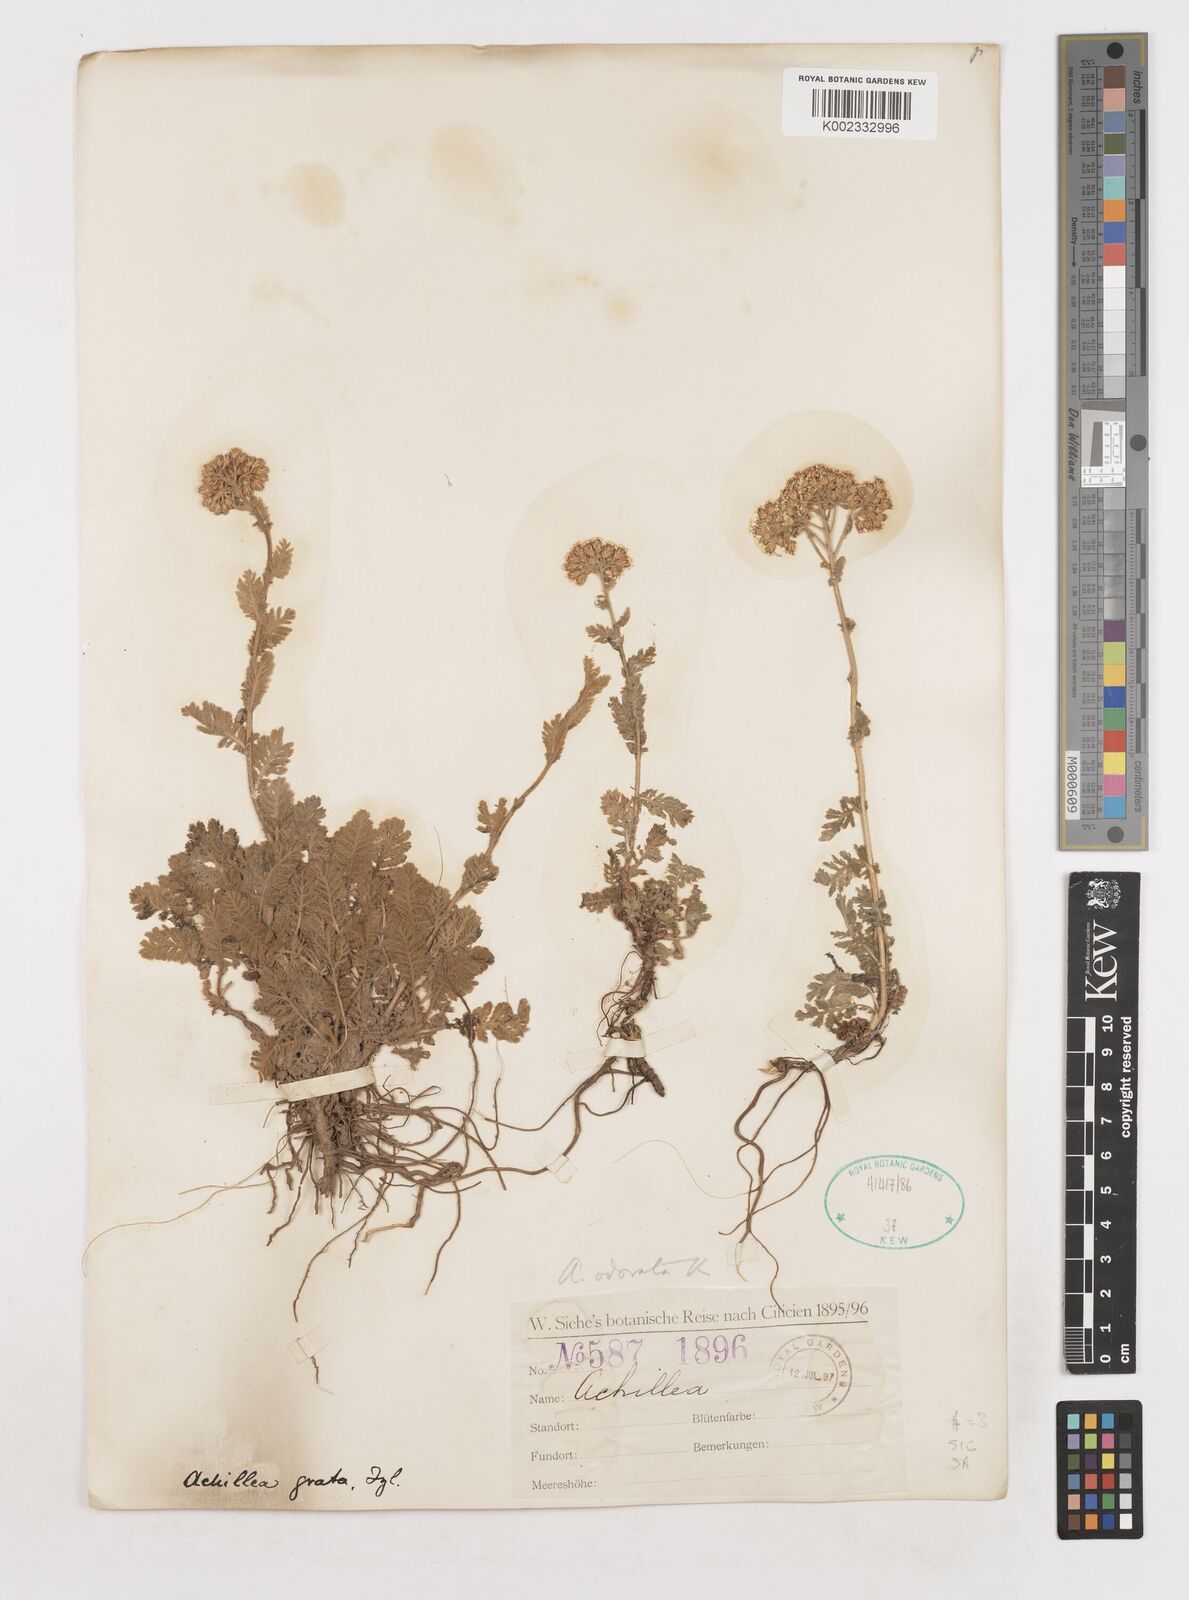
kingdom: Plantae
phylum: Tracheophyta
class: Magnoliopsida
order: Asterales
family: Asteraceae
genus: Achillea
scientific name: Achillea
